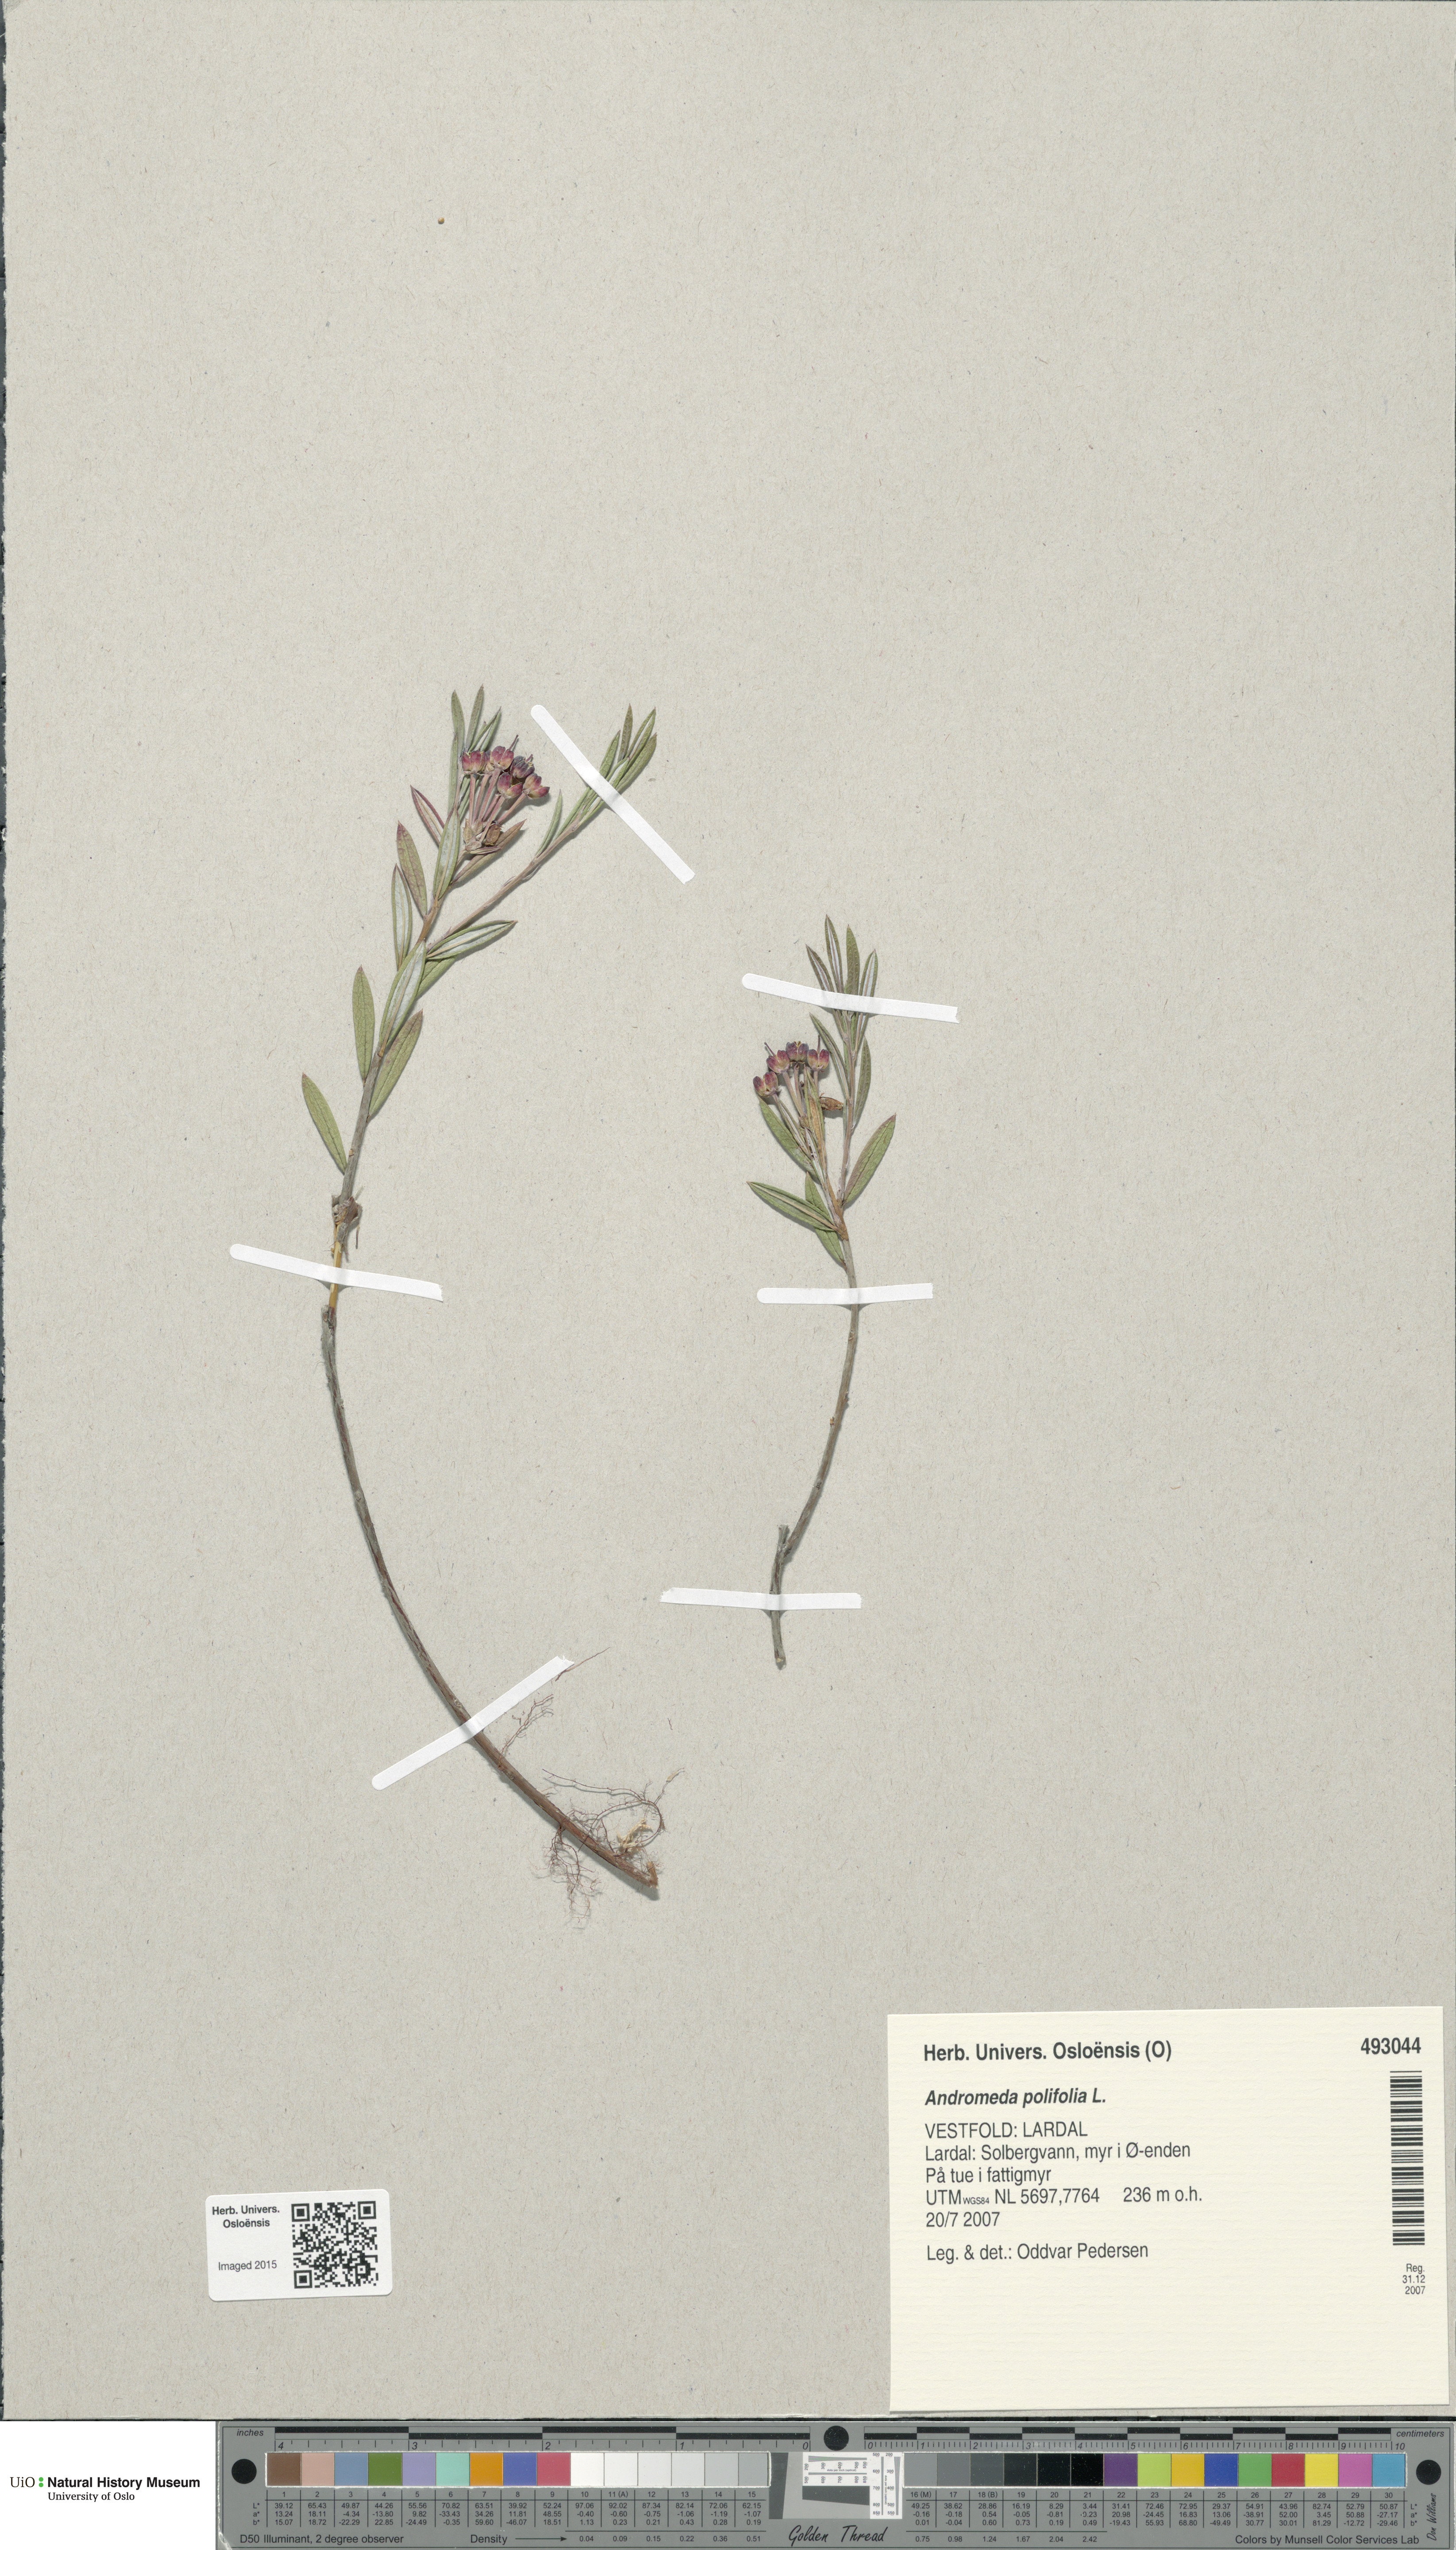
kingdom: Plantae
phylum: Tracheophyta
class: Magnoliopsida
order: Ericales
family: Ericaceae
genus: Andromeda
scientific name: Andromeda polifolia
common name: Bog-rosemary
